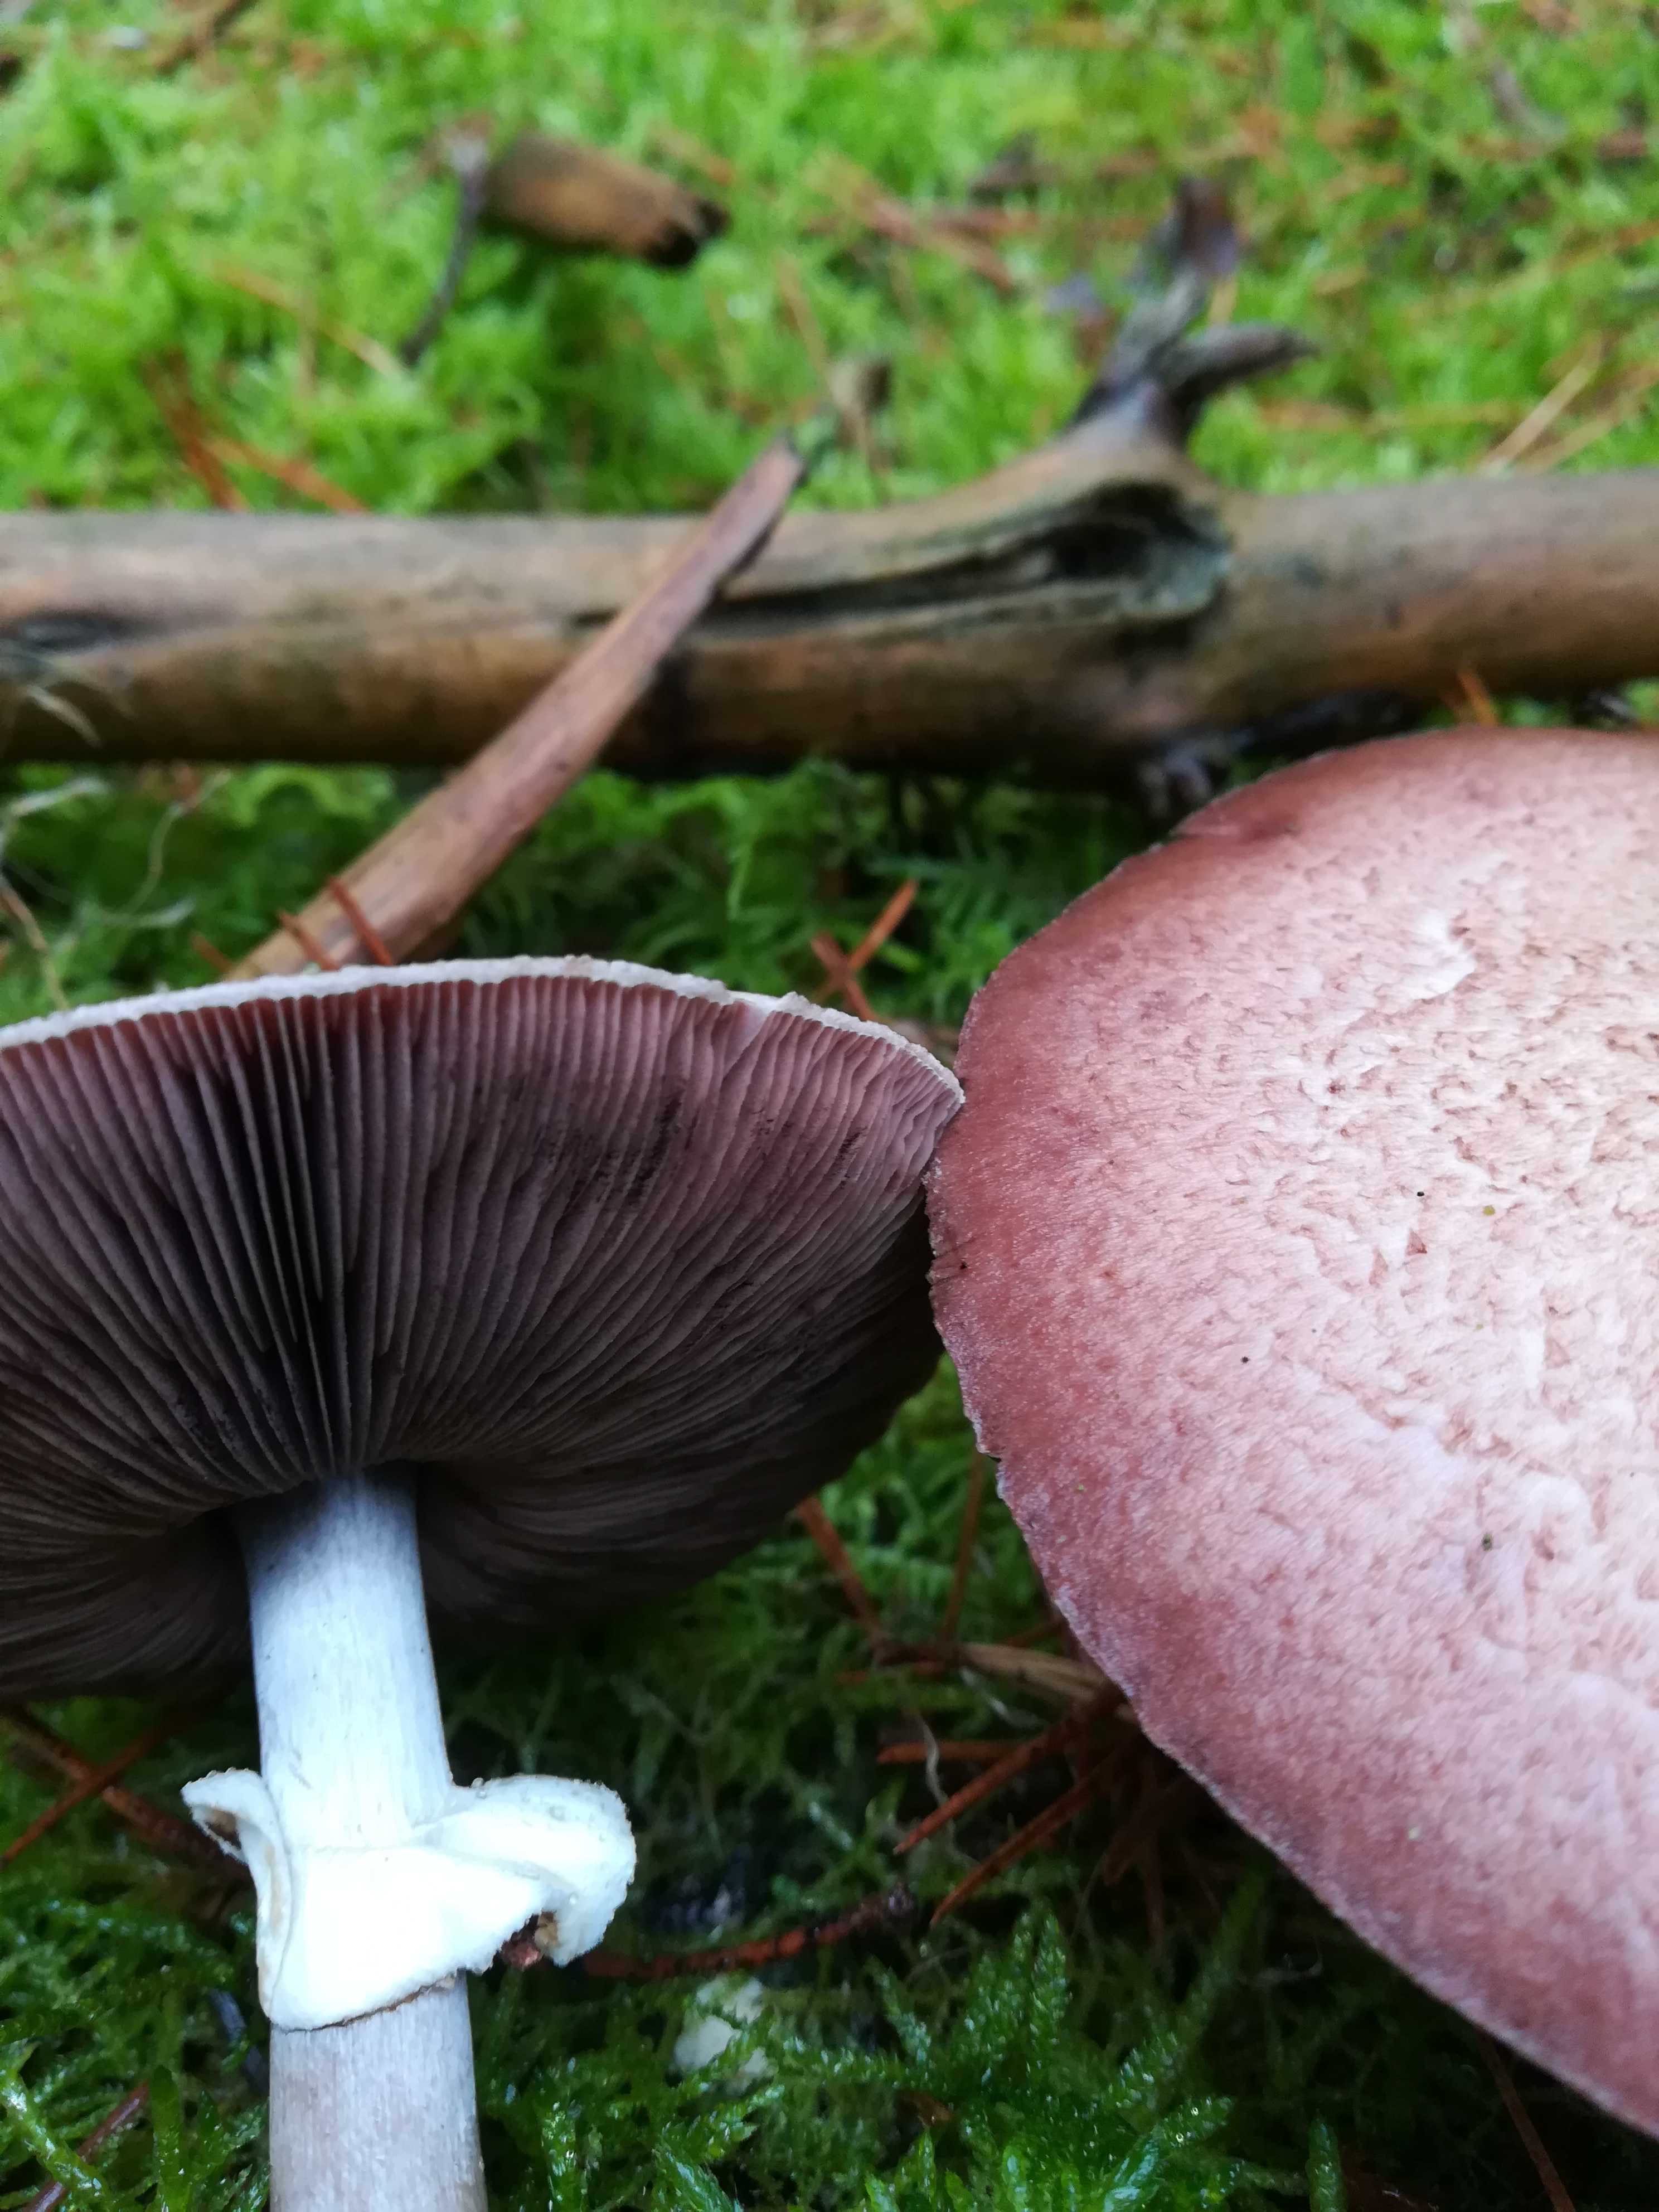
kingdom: Fungi
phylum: Basidiomycota
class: Agaricomycetes
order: Agaricales
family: Agaricaceae
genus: Agaricus
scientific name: Agaricus
